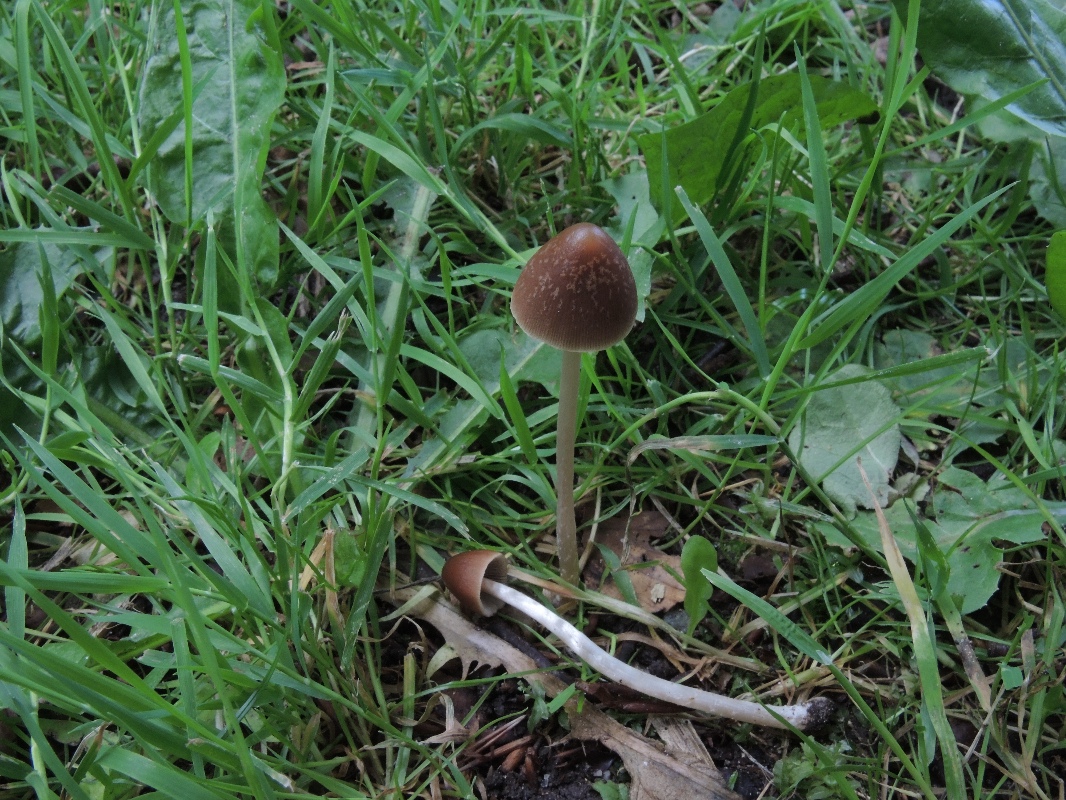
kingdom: Fungi
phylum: Basidiomycota
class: Agaricomycetes
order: Agaricales
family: Psathyrellaceae
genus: Parasola
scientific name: Parasola conopilea
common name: kegle-hjulhat
